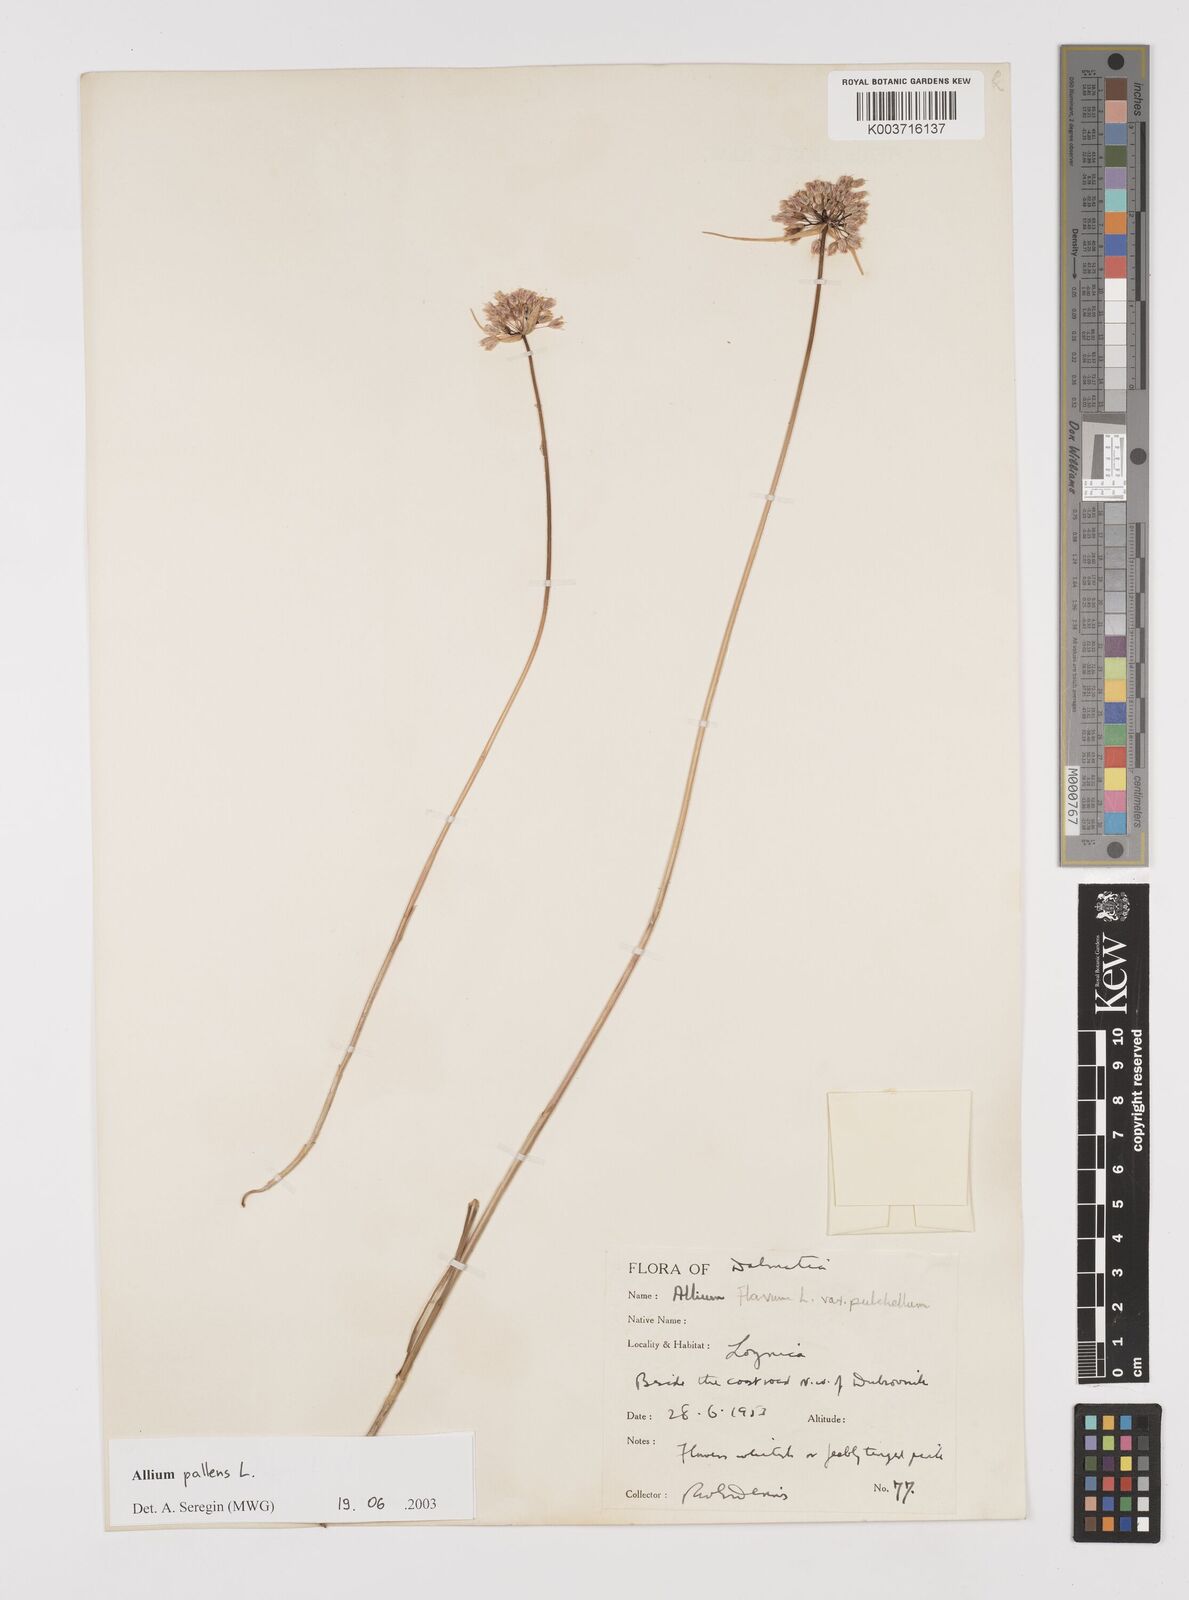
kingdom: Plantae
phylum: Tracheophyta
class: Liliopsida
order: Asparagales
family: Amaryllidaceae
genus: Allium
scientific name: Allium pallens
